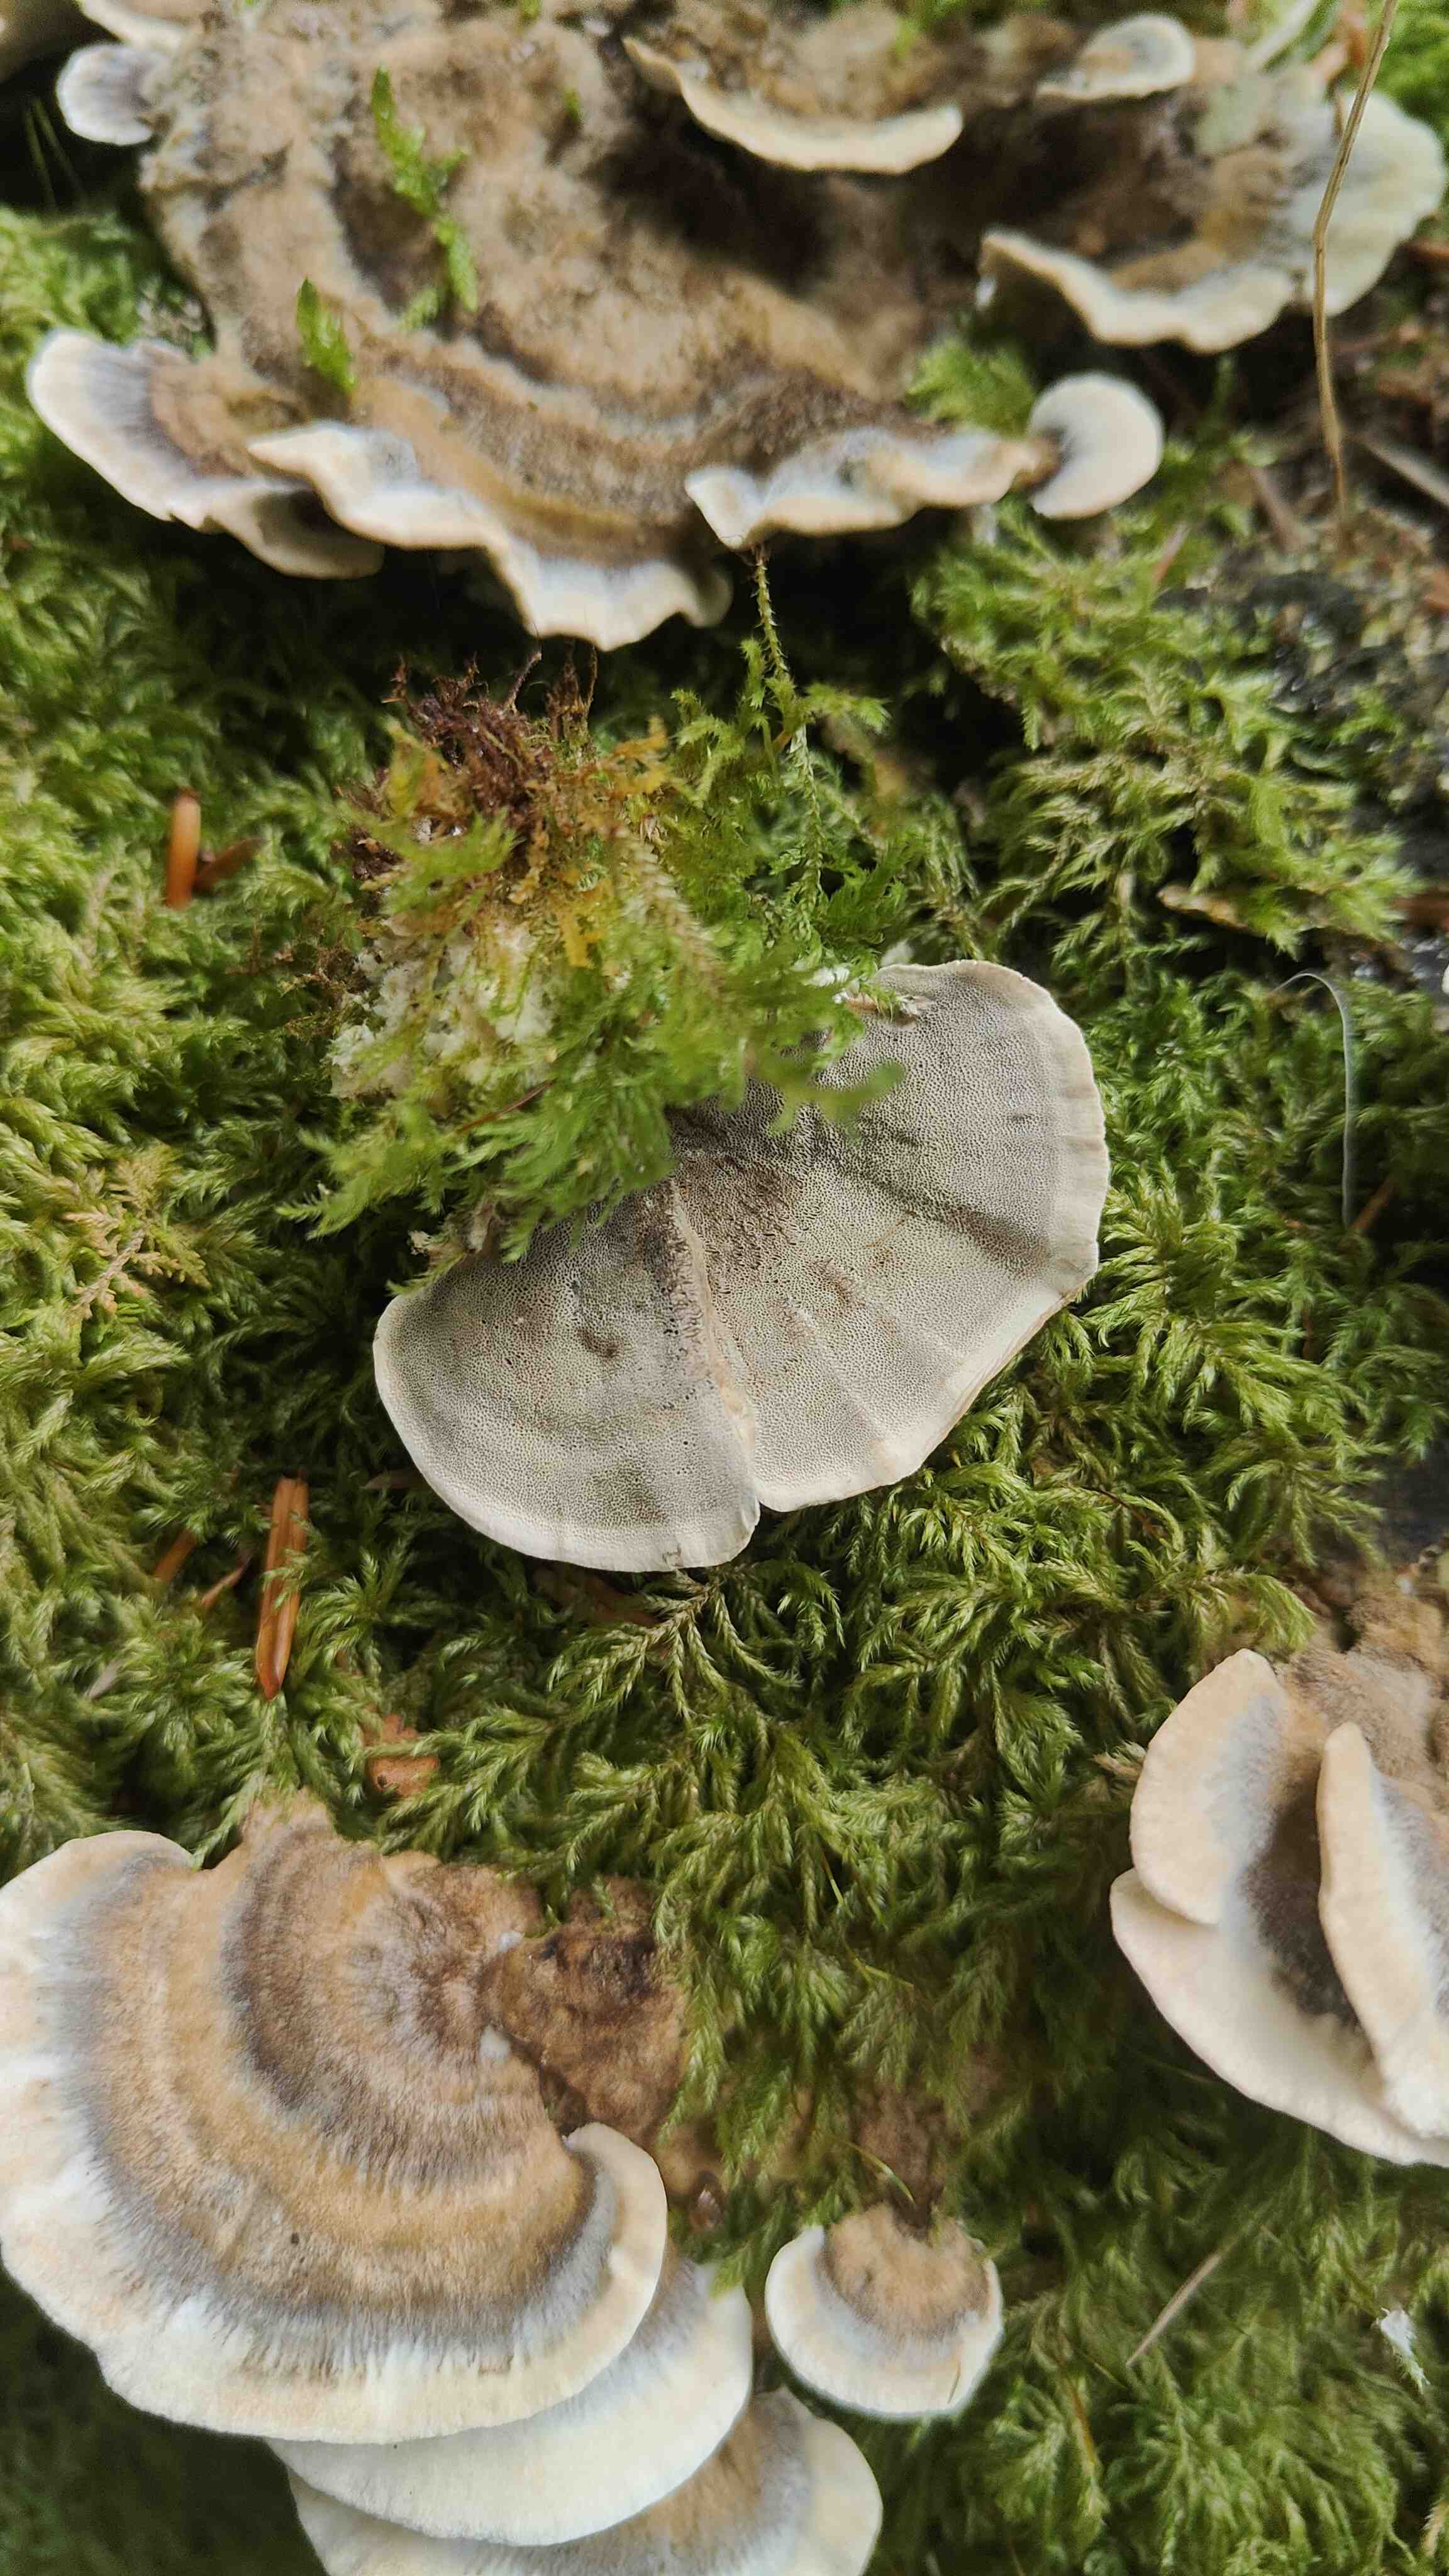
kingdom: Fungi
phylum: Basidiomycota
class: Agaricomycetes
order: Polyporales
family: Polyporaceae
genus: Trametes
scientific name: Trametes versicolor
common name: broget læderporesvamp
